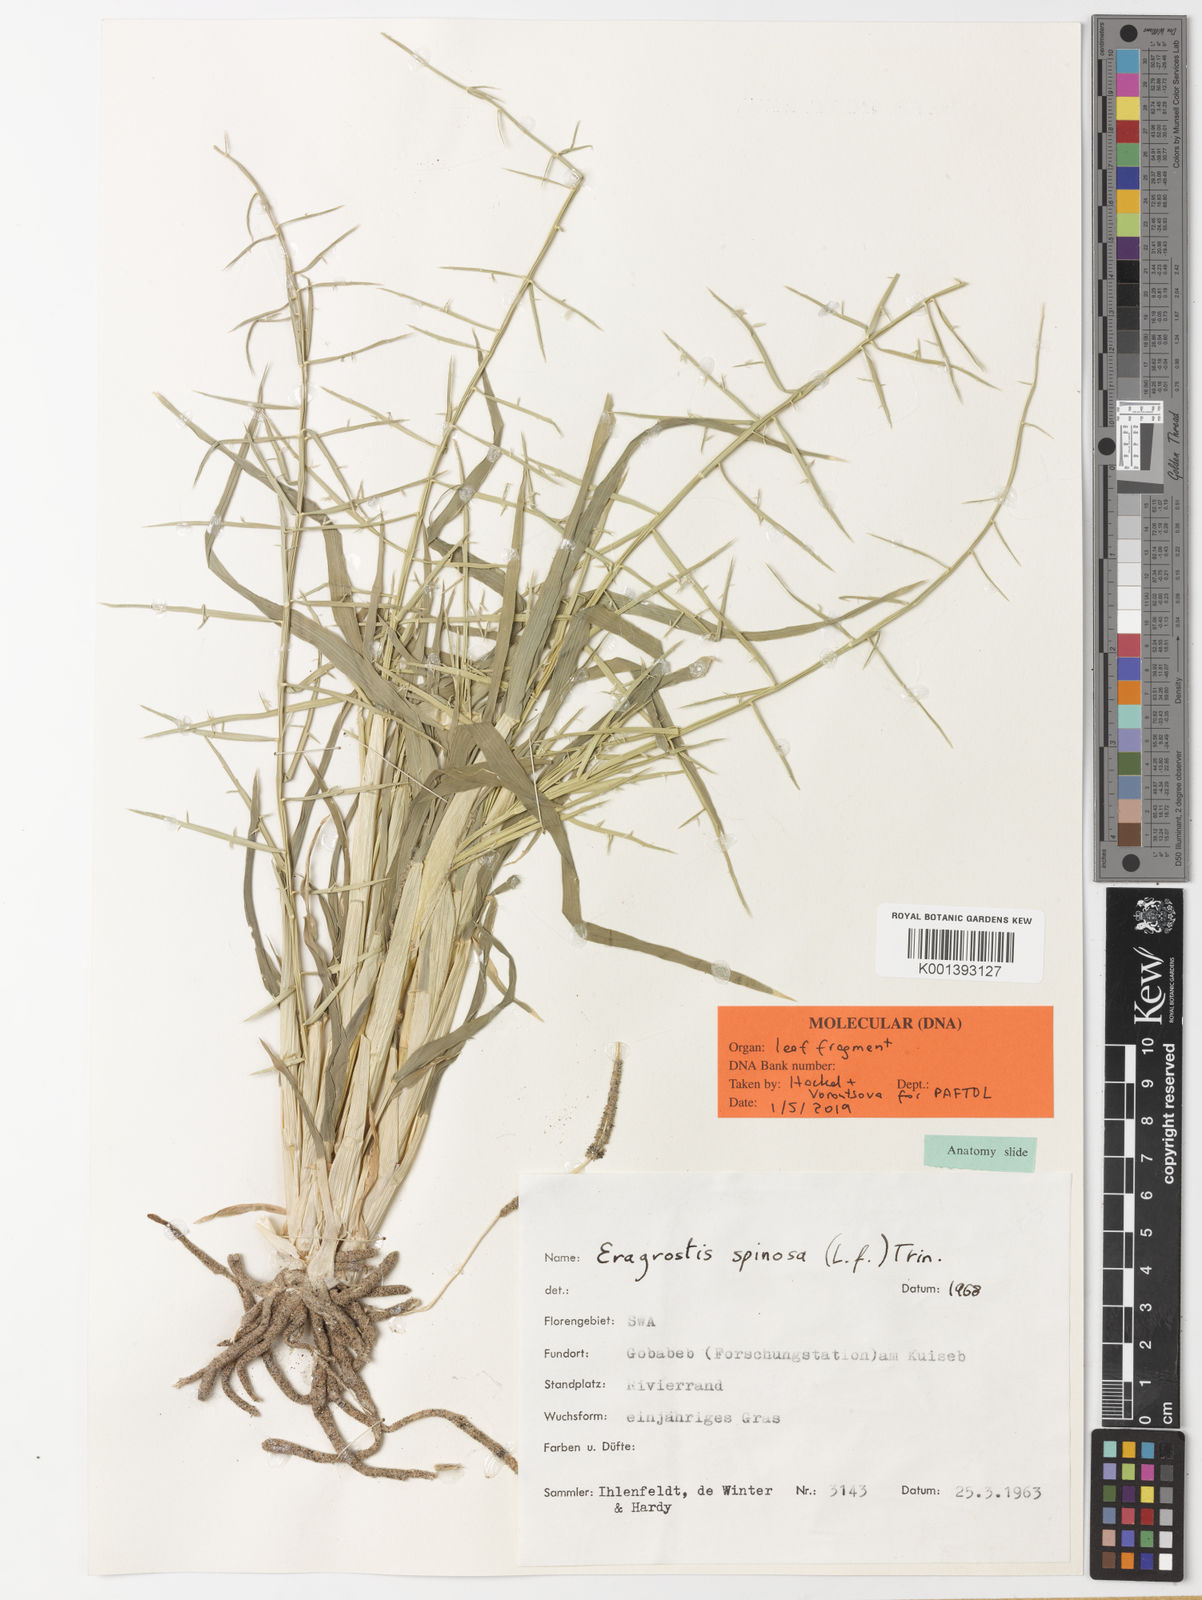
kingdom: Plantae
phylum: Tracheophyta
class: Liliopsida
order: Poales
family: Poaceae
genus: Cladoraphis
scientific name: Cladoraphis spinosa
